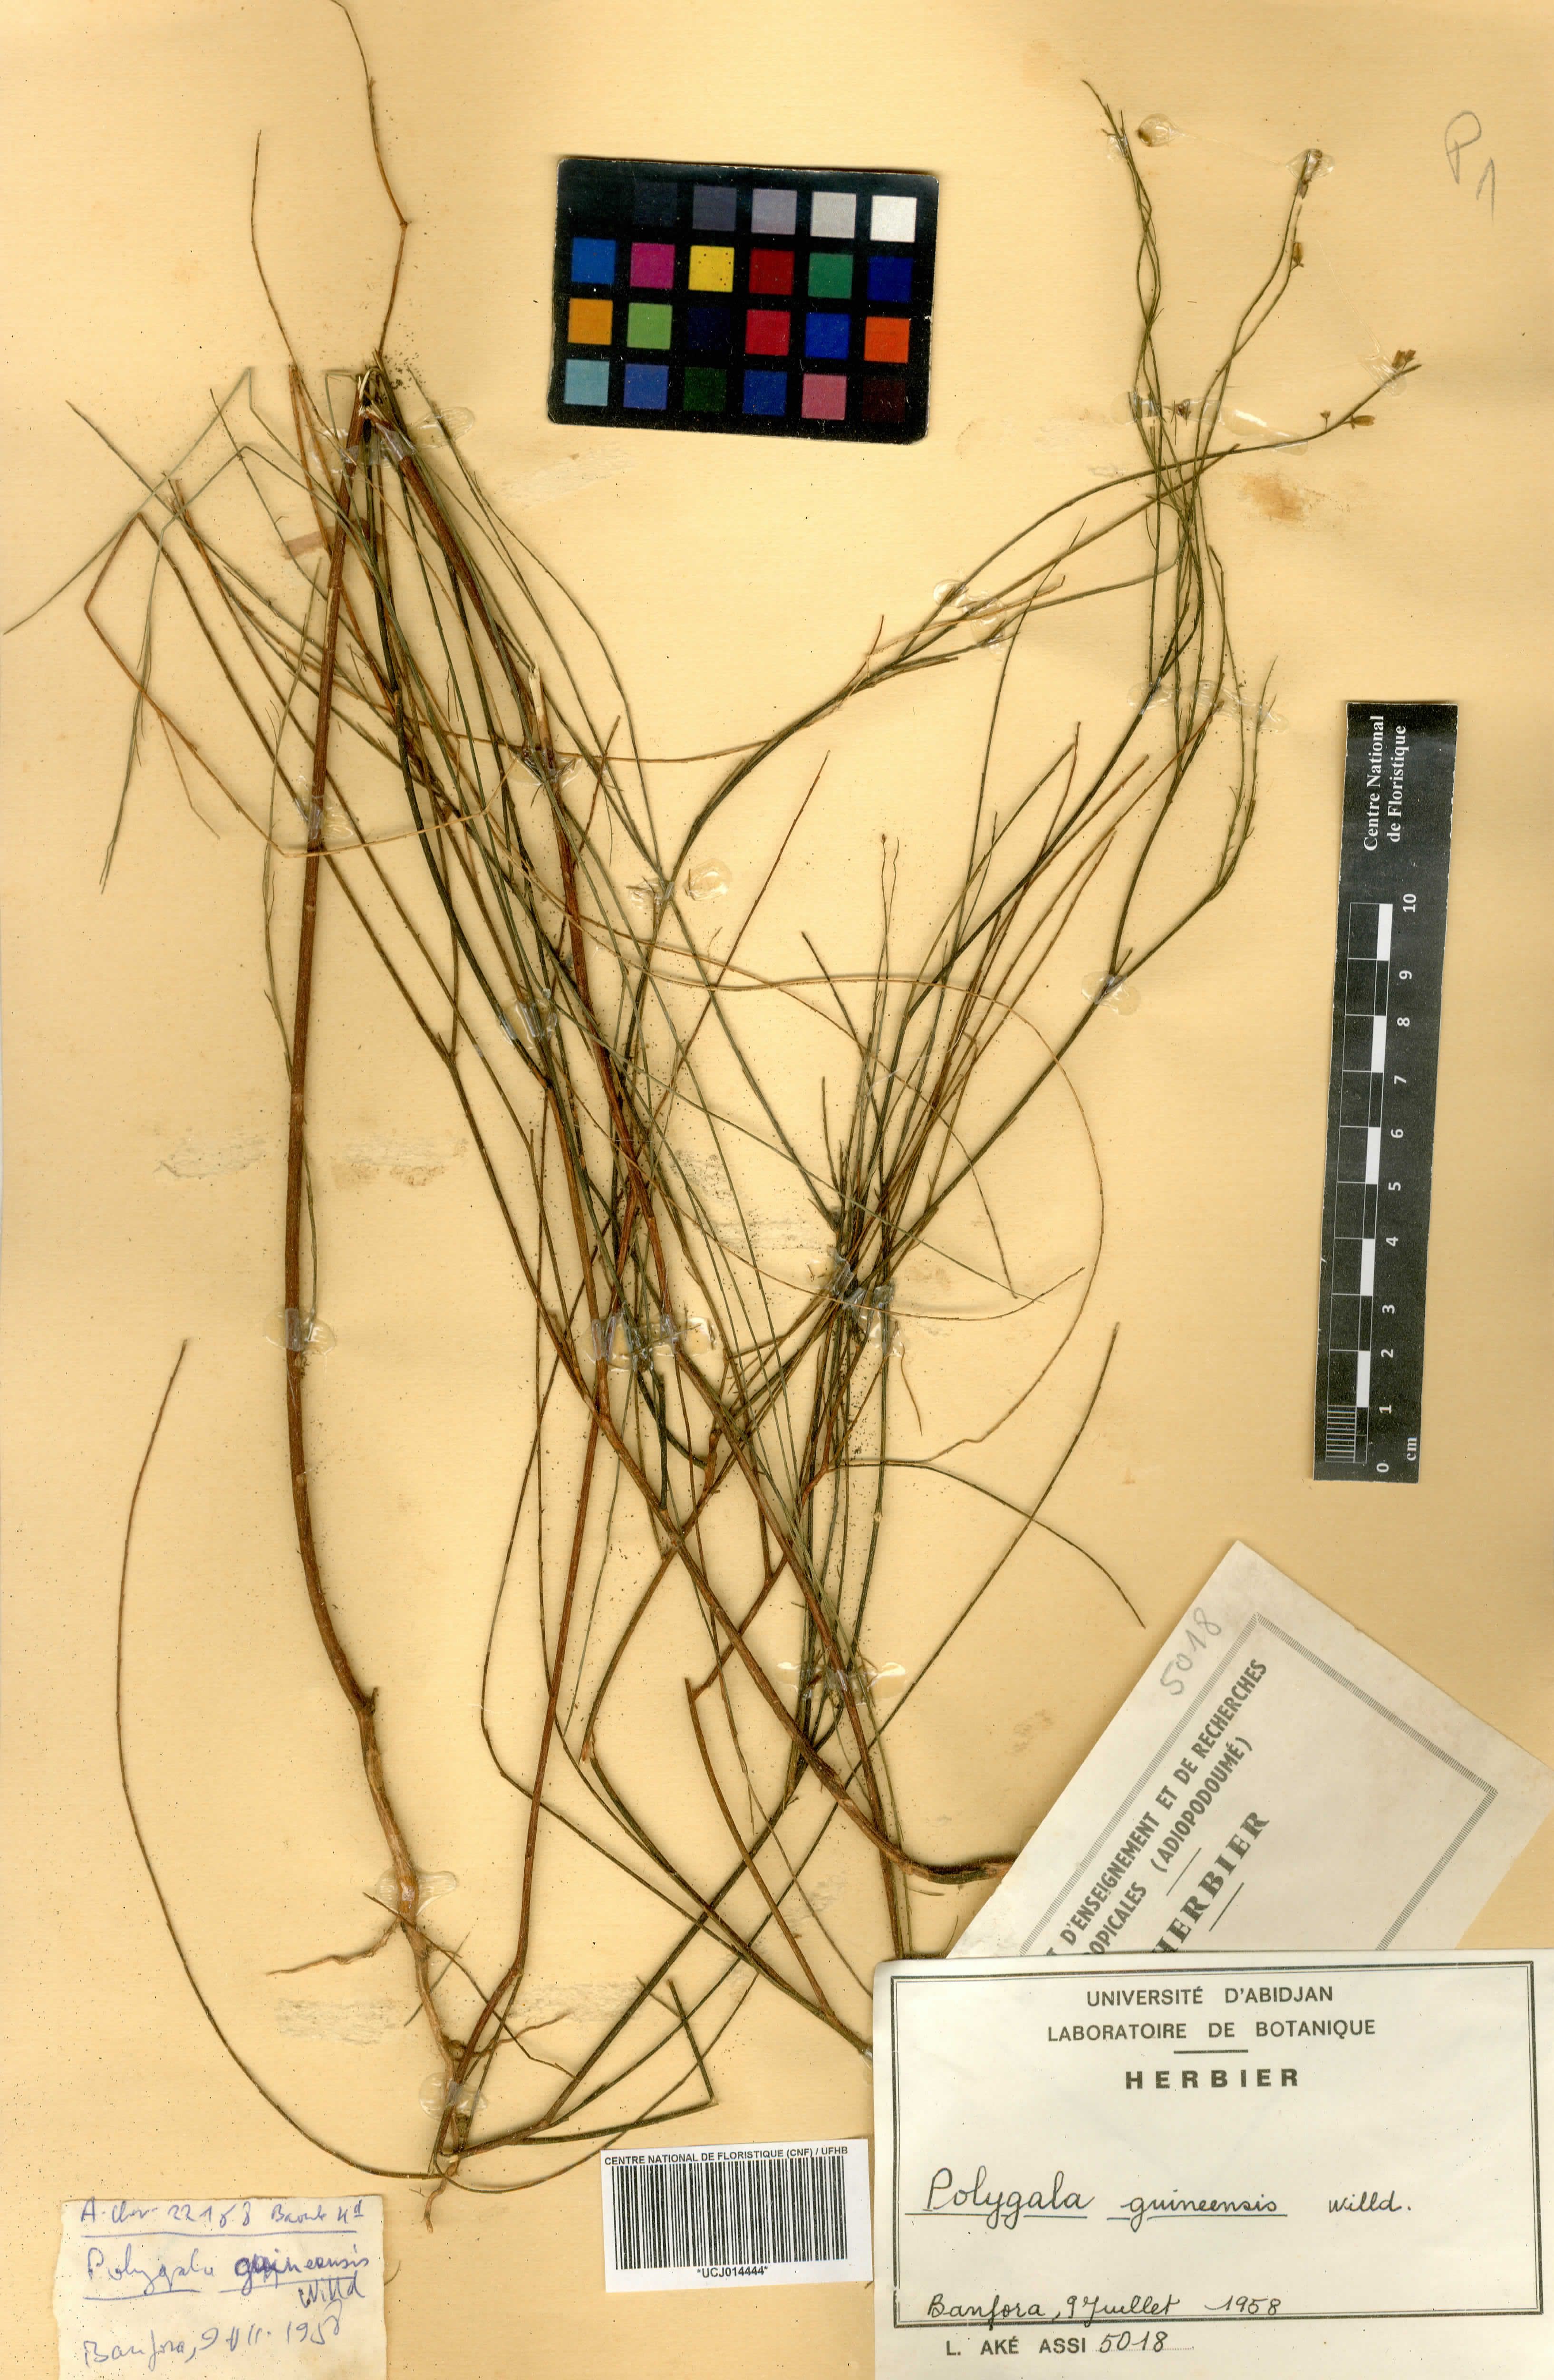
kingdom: Plantae
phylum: Tracheophyta
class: Magnoliopsida
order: Fabales
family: Polygalaceae
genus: Polygala
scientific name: Polygala guineensis
